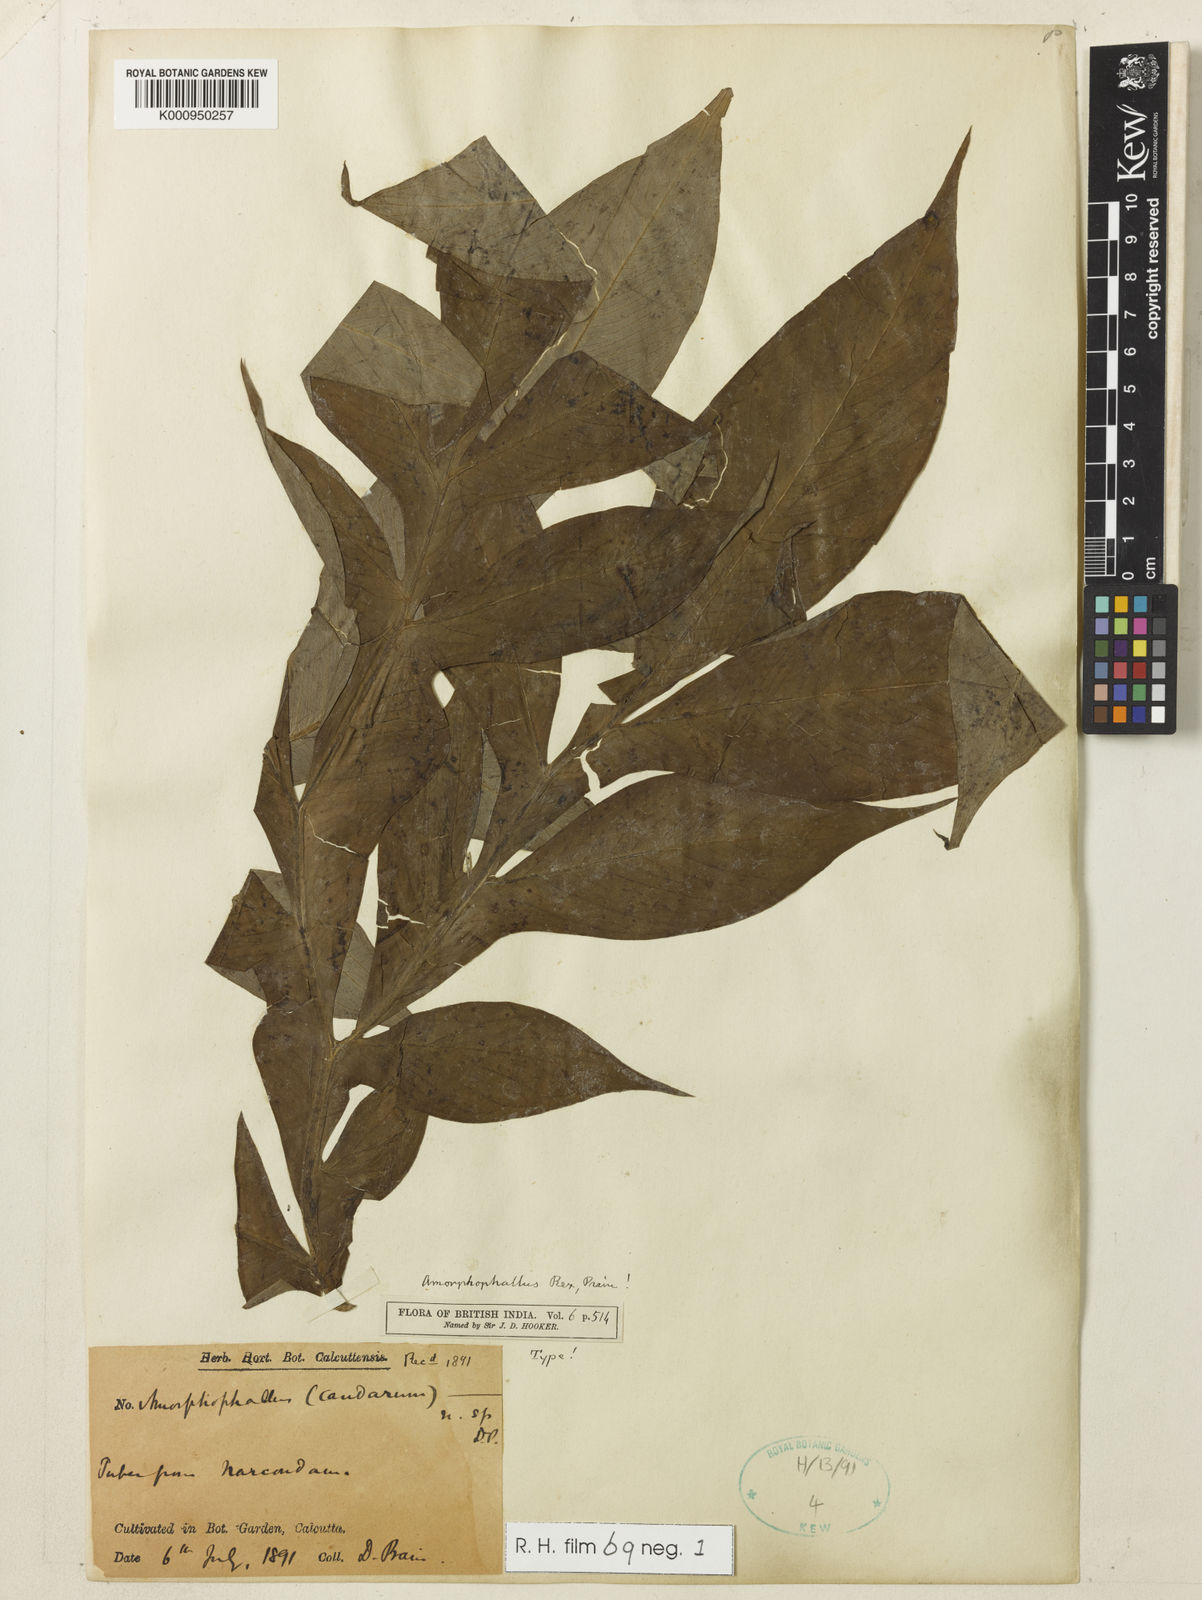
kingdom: Plantae
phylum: Tracheophyta
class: Liliopsida
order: Alismatales
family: Araceae
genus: Amorphophallus
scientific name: Amorphophallus paeoniifolius
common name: Telinga-potato
